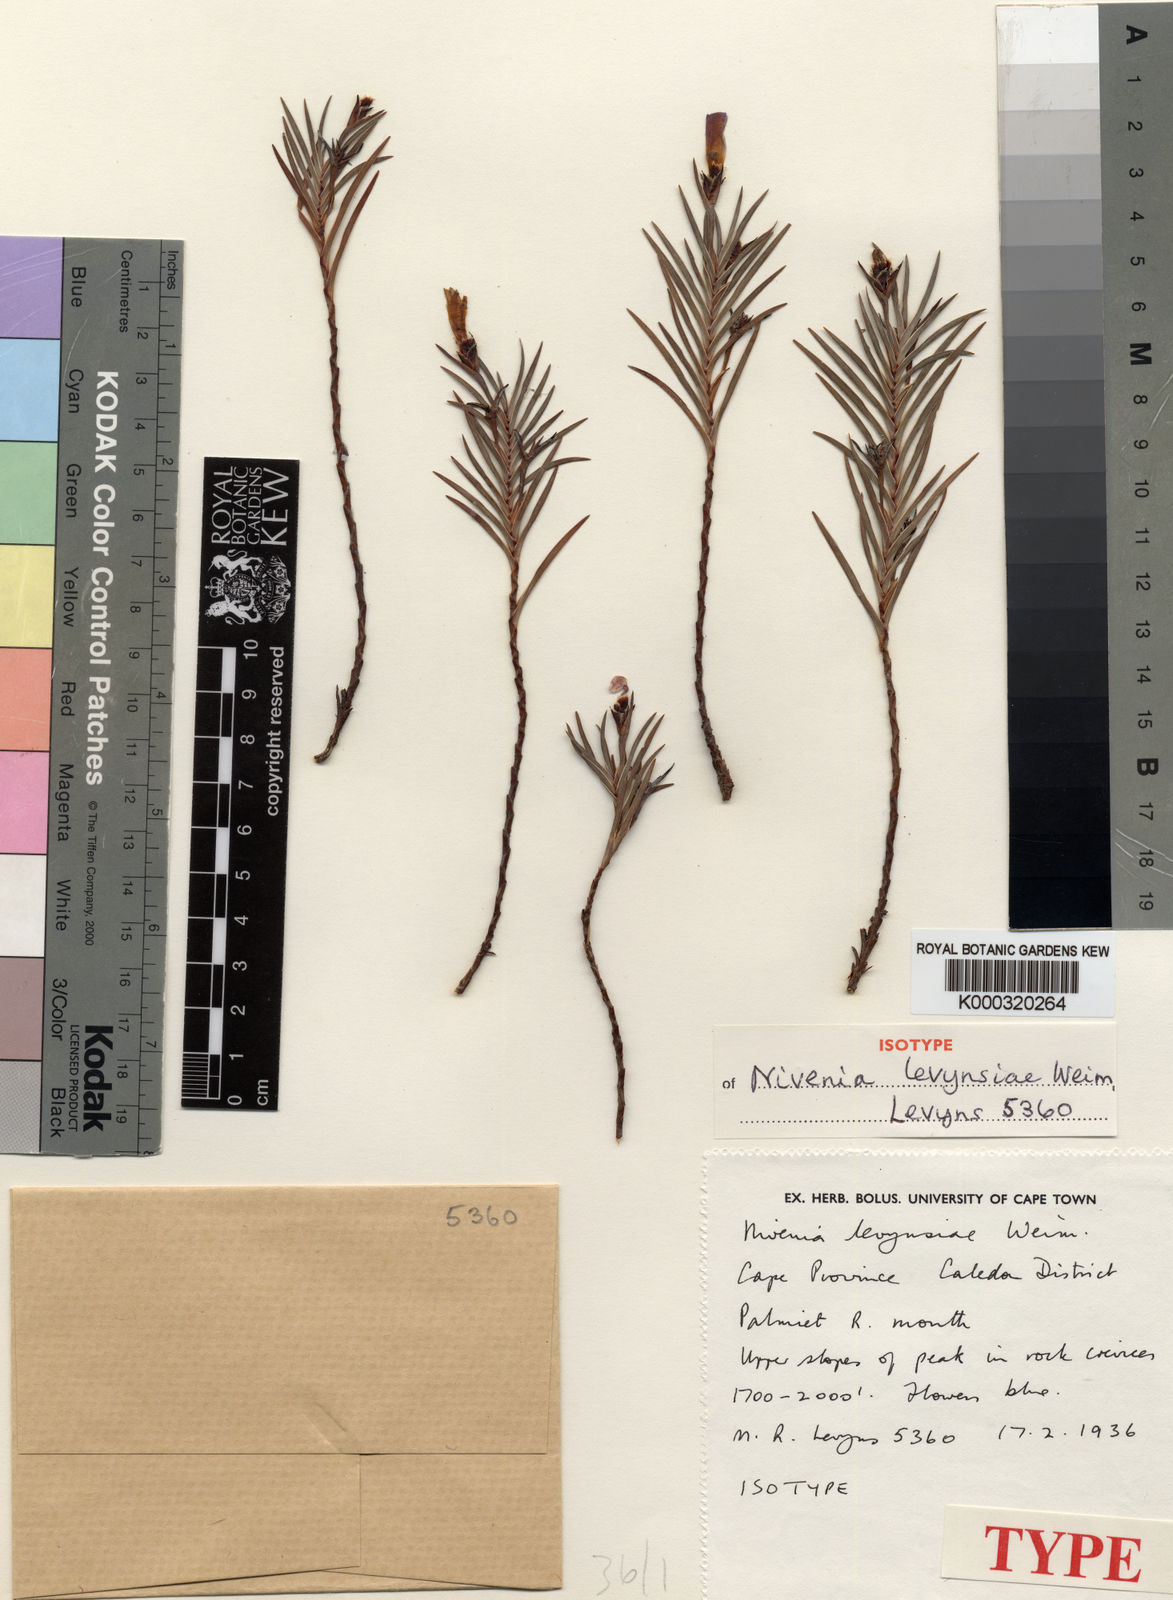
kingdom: Plantae
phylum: Tracheophyta
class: Liliopsida
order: Asparagales
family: Iridaceae
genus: Nivenia
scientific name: Nivenia levynsiae
